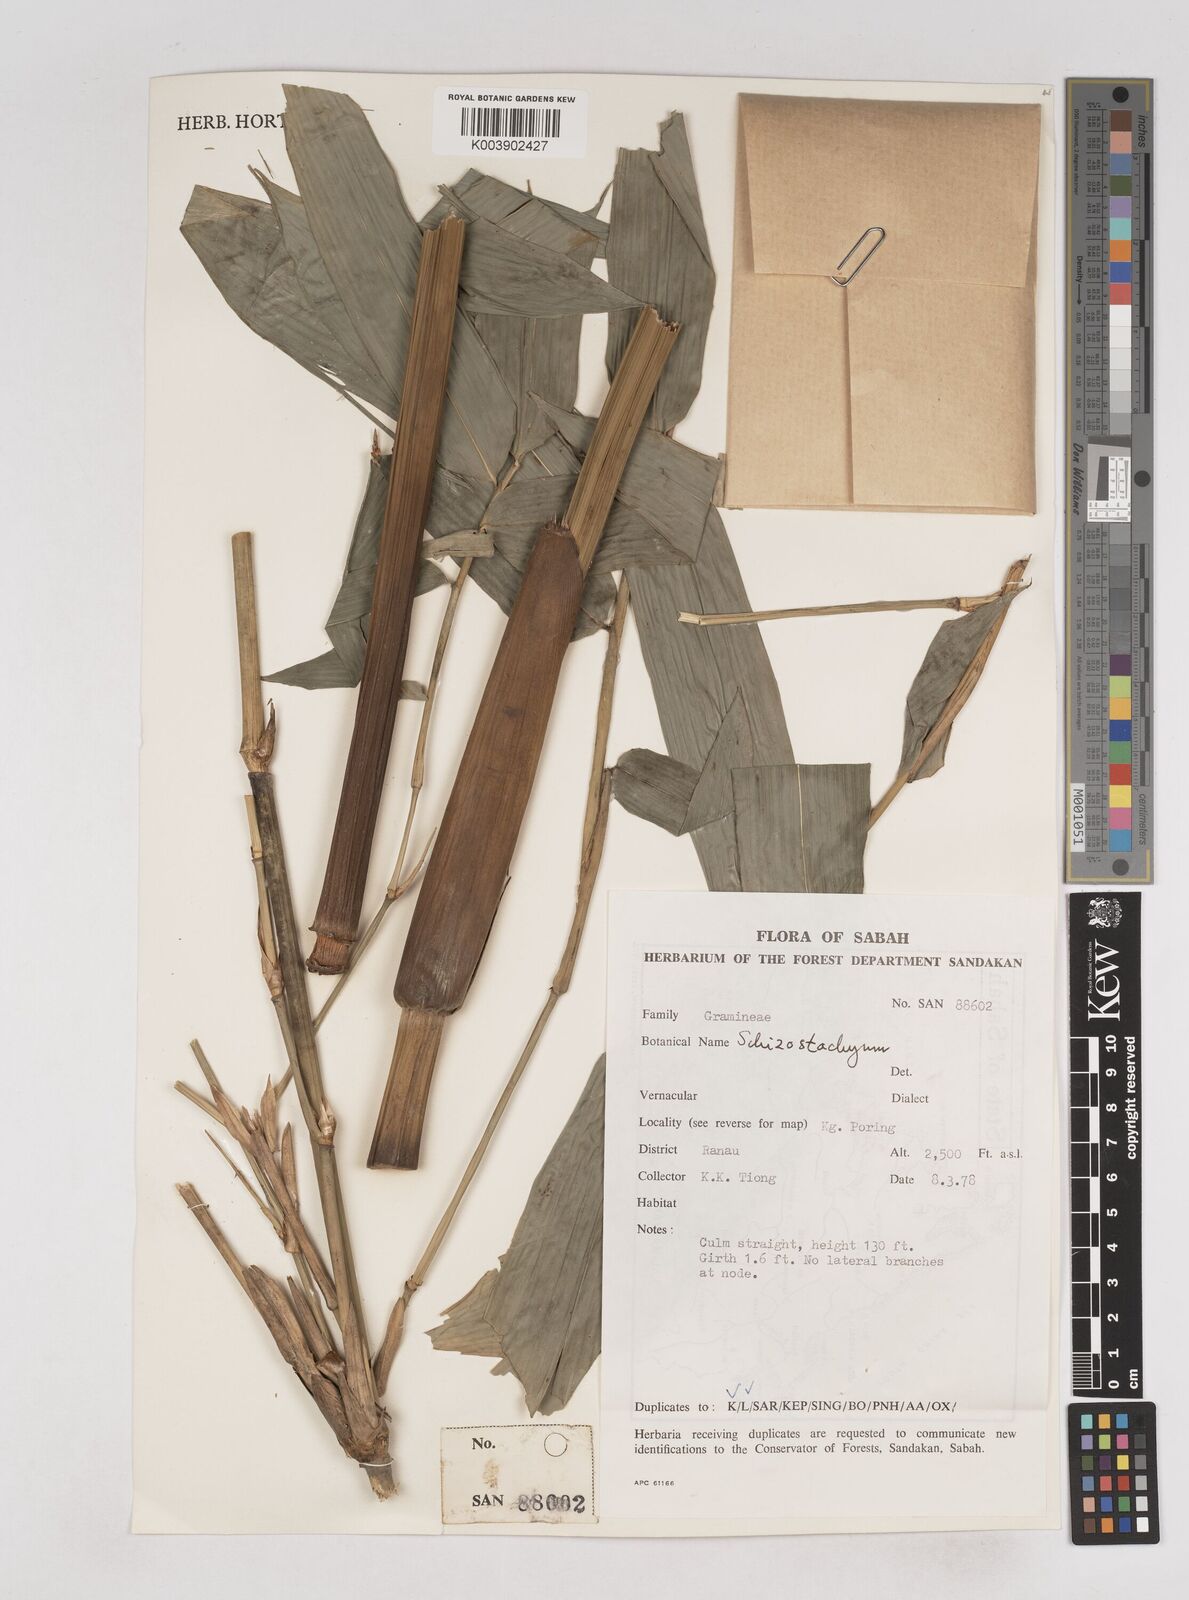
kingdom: Plantae
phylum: Tracheophyta
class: Liliopsida
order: Poales
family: Poaceae
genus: Schizostachyum
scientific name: Schizostachyum
